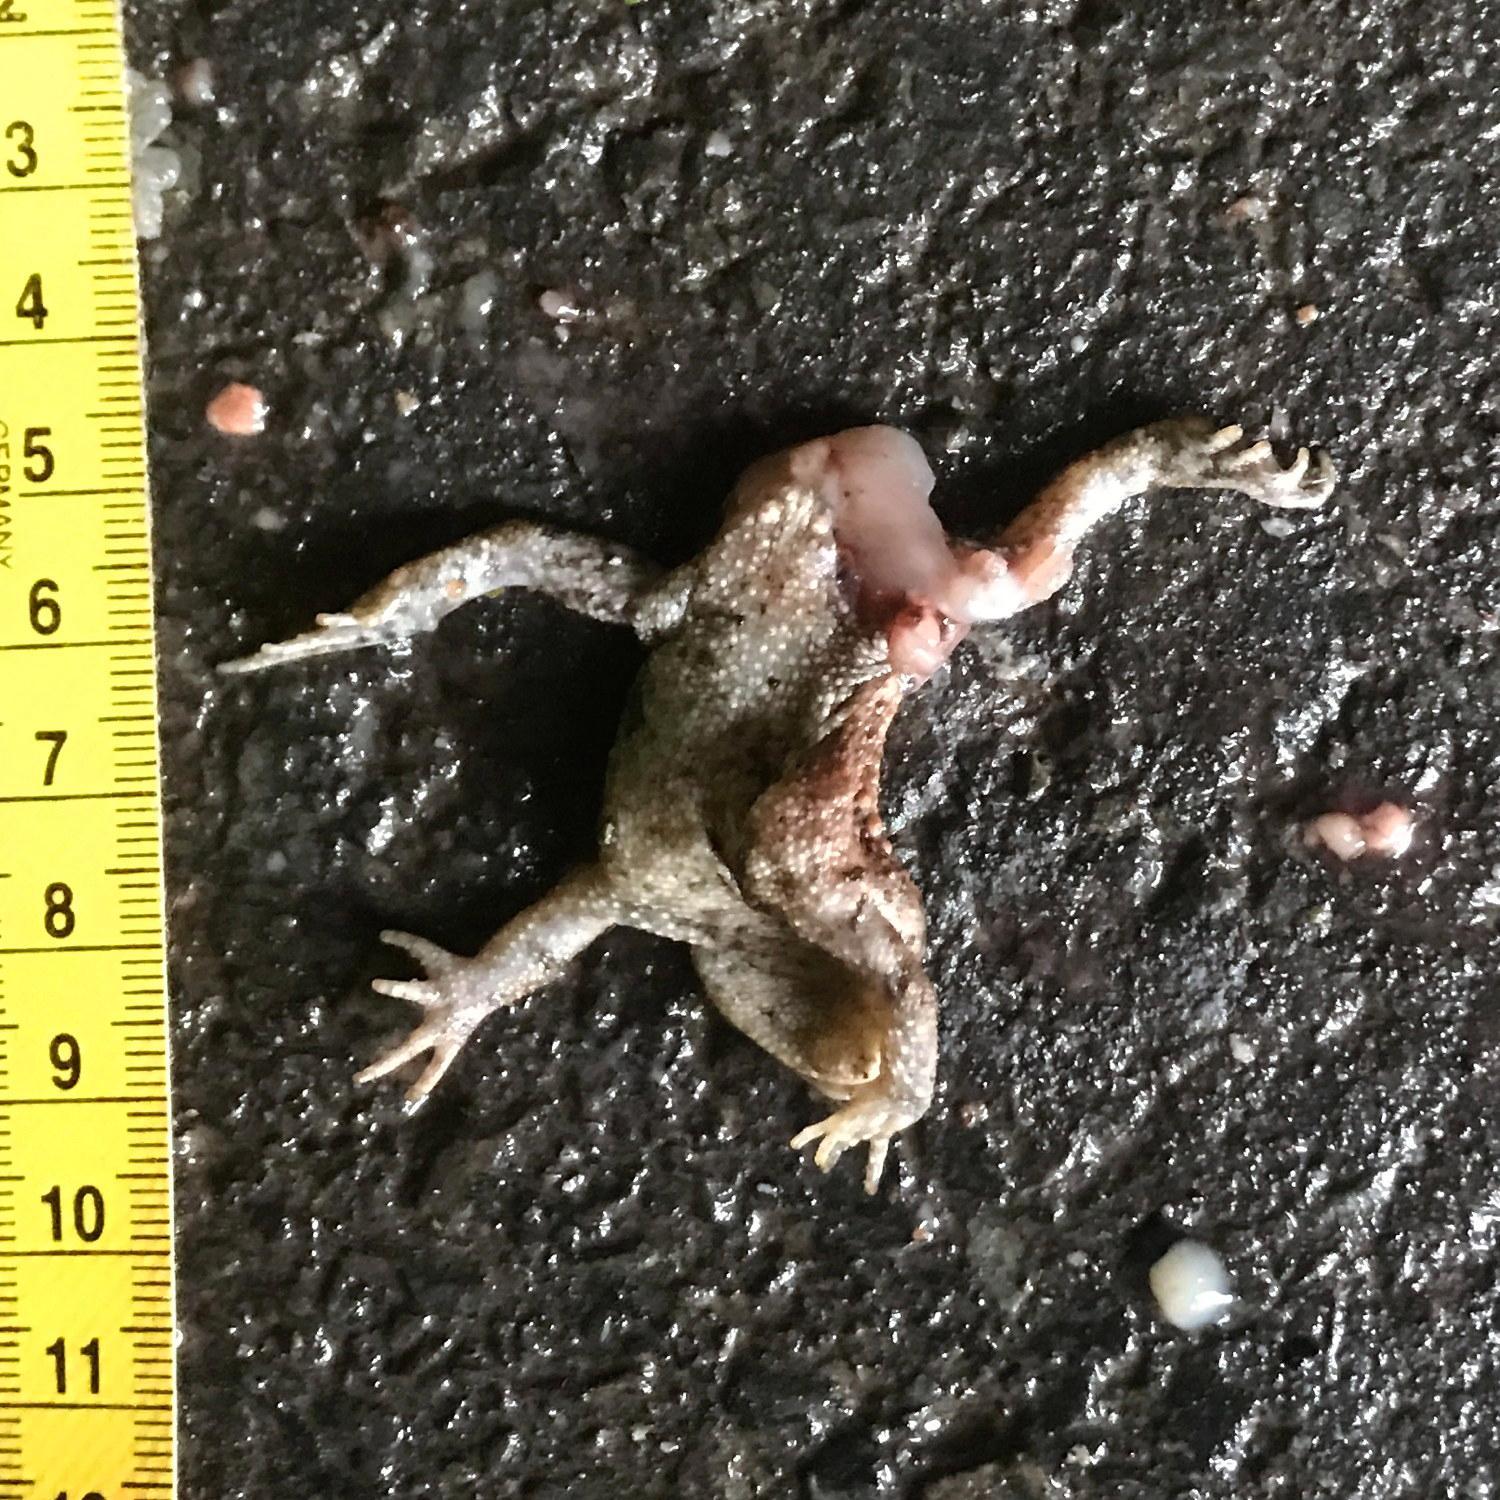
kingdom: Animalia
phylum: Chordata
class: Amphibia
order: Anura
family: Bufonidae
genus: Bufo
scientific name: Bufo bufo
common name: Common toad
